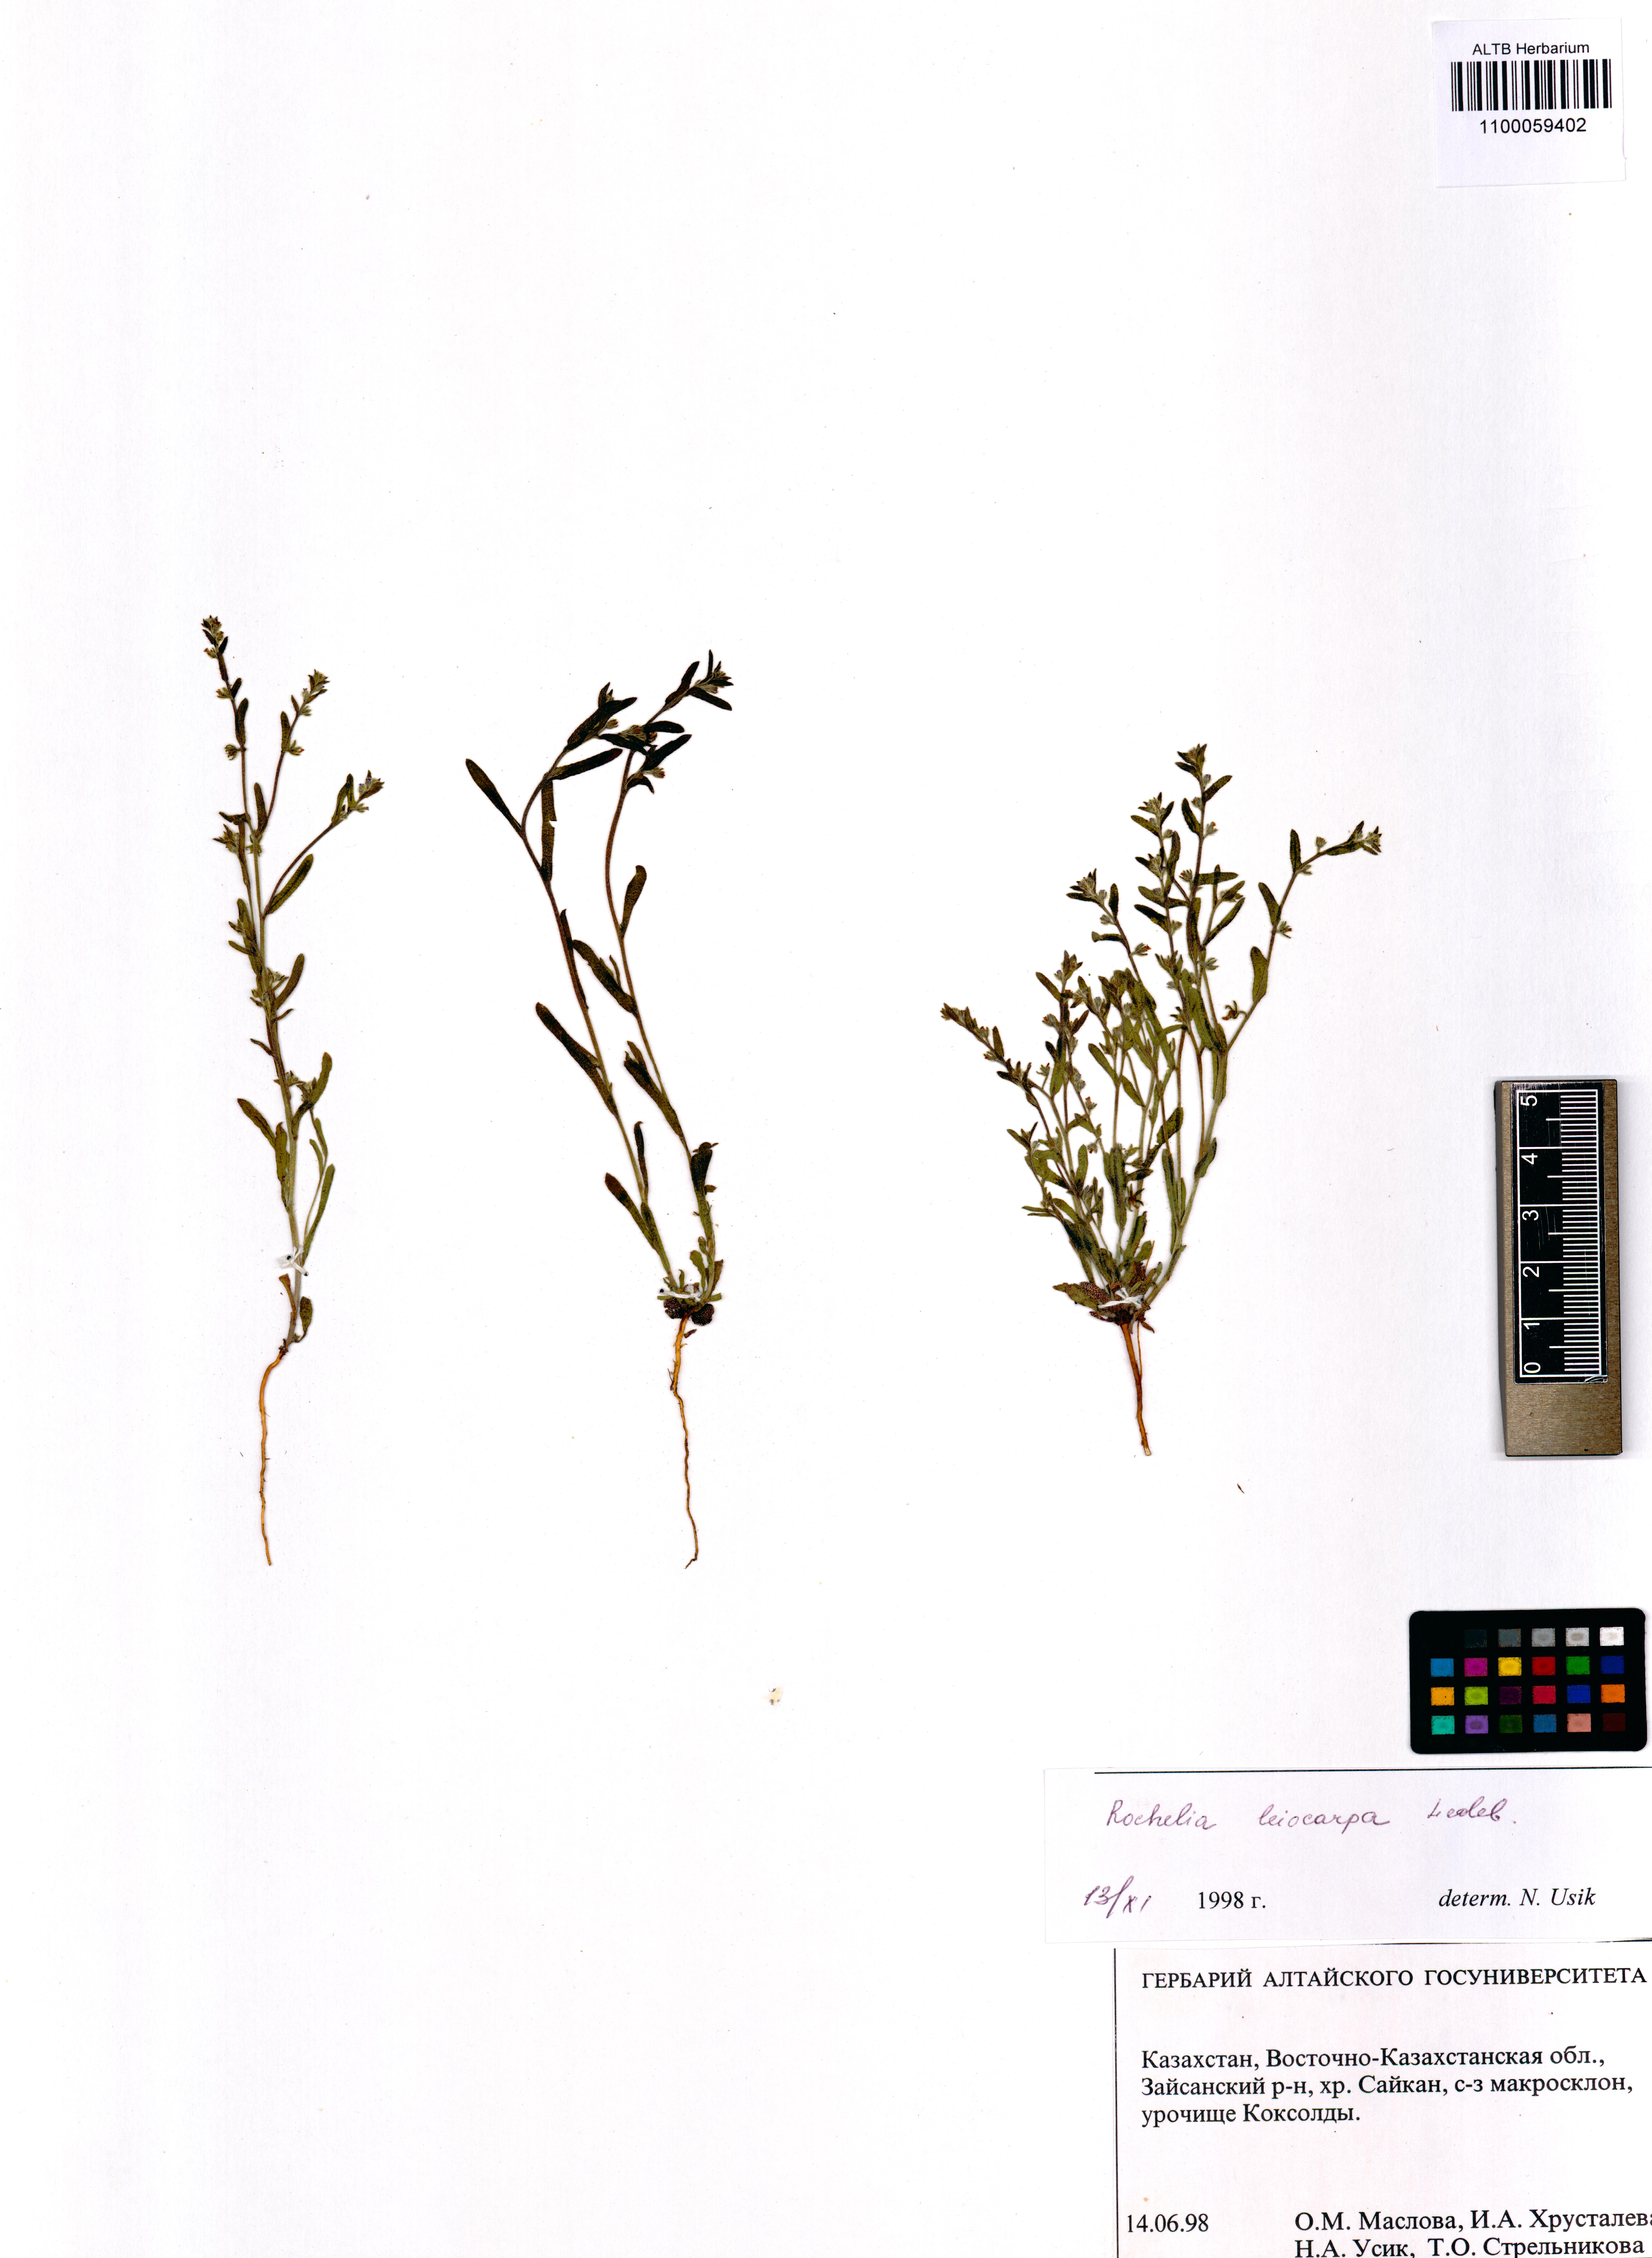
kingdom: Plantae
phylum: Tracheophyta
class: Magnoliopsida
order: Boraginales
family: Boraginaceae
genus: Rochelia
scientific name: Rochelia leiocarpa
